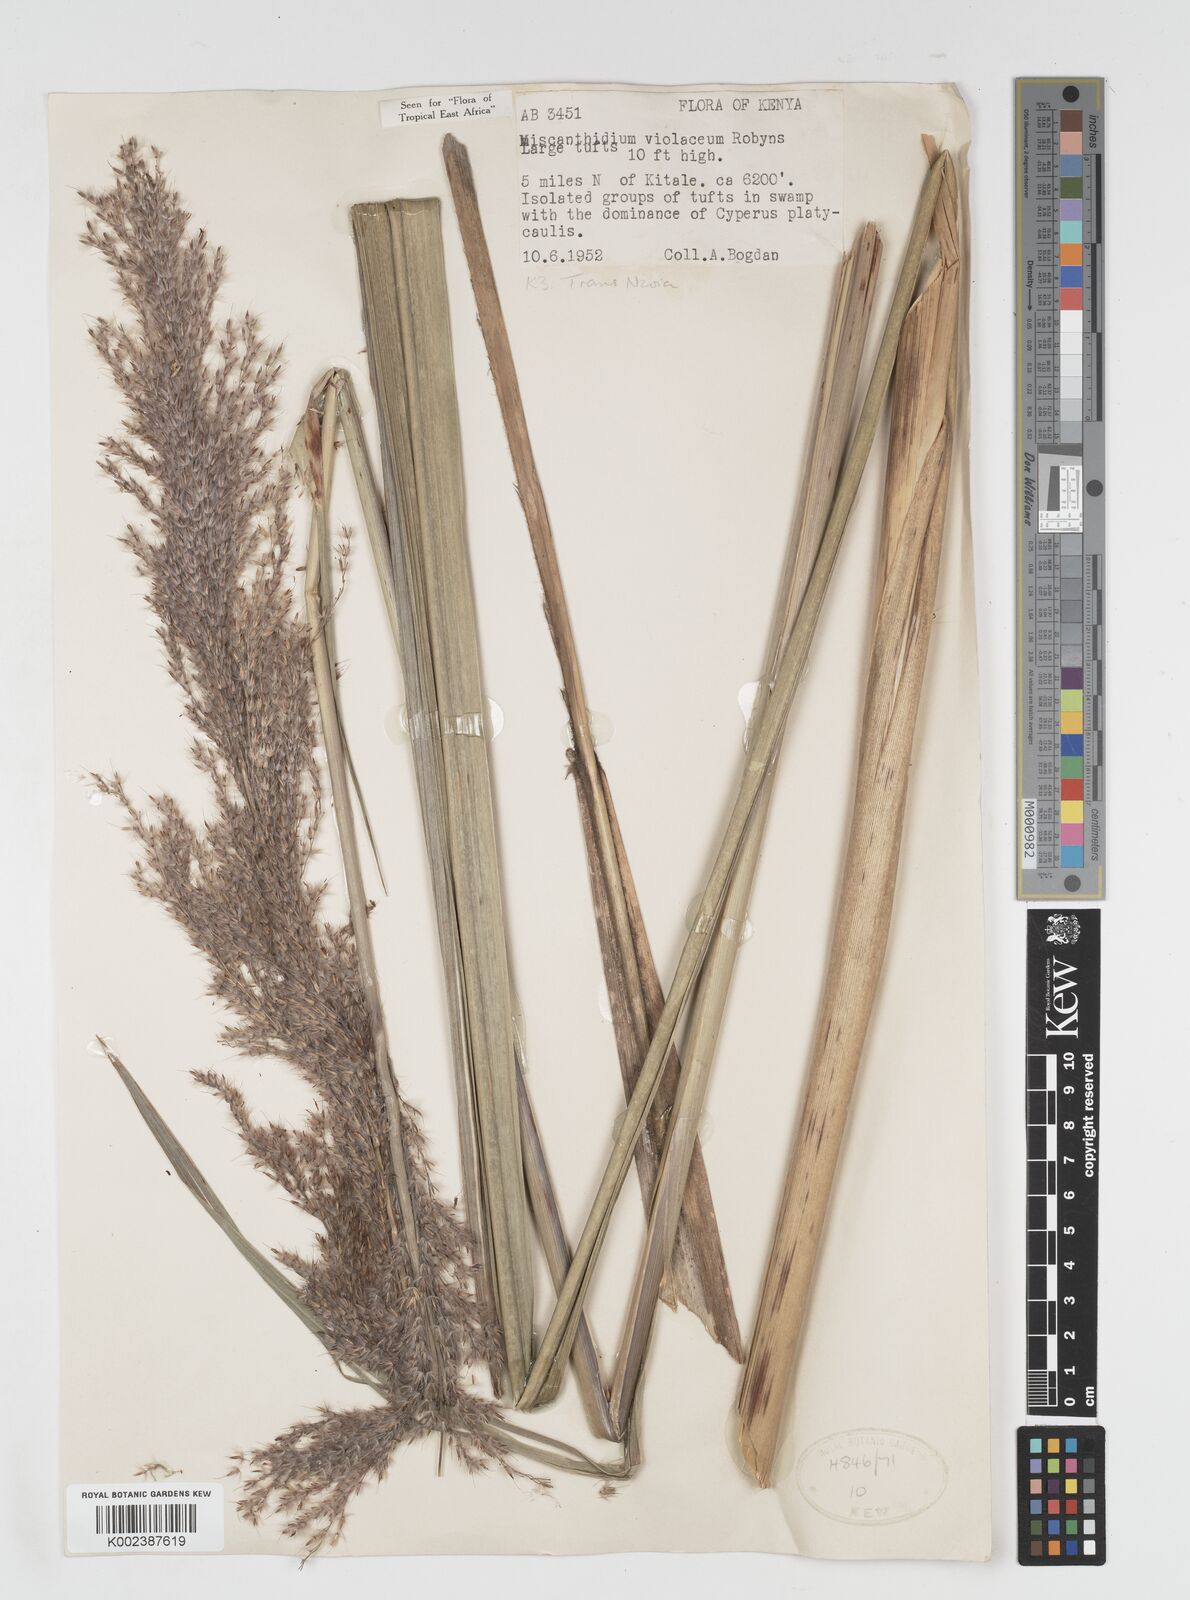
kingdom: Plantae
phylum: Tracheophyta
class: Liliopsida
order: Poales
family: Poaceae
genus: Miscanthidium
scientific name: Miscanthidium violaceum
